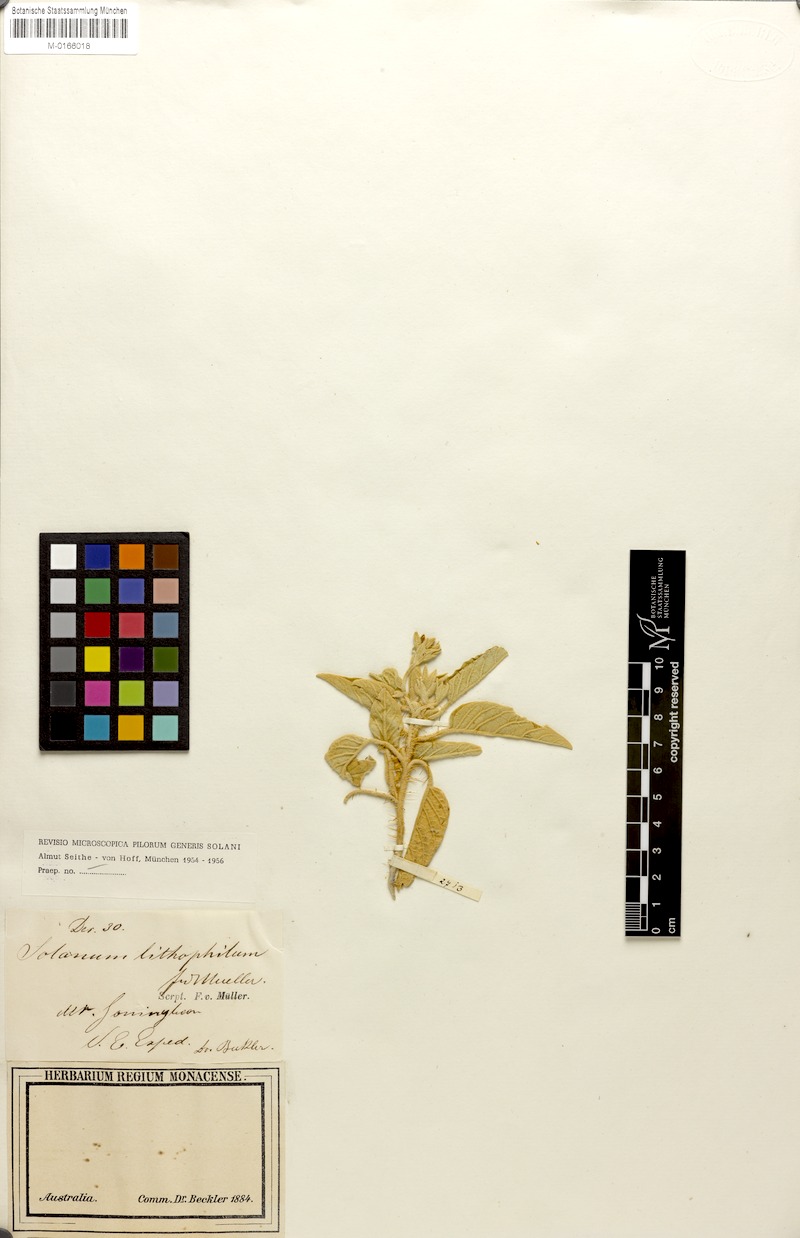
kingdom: Plantae
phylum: Tracheophyta
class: Magnoliopsida
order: Solanales
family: Solanaceae
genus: Solanum
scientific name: Solanum ellipticum
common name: Potato-bush
